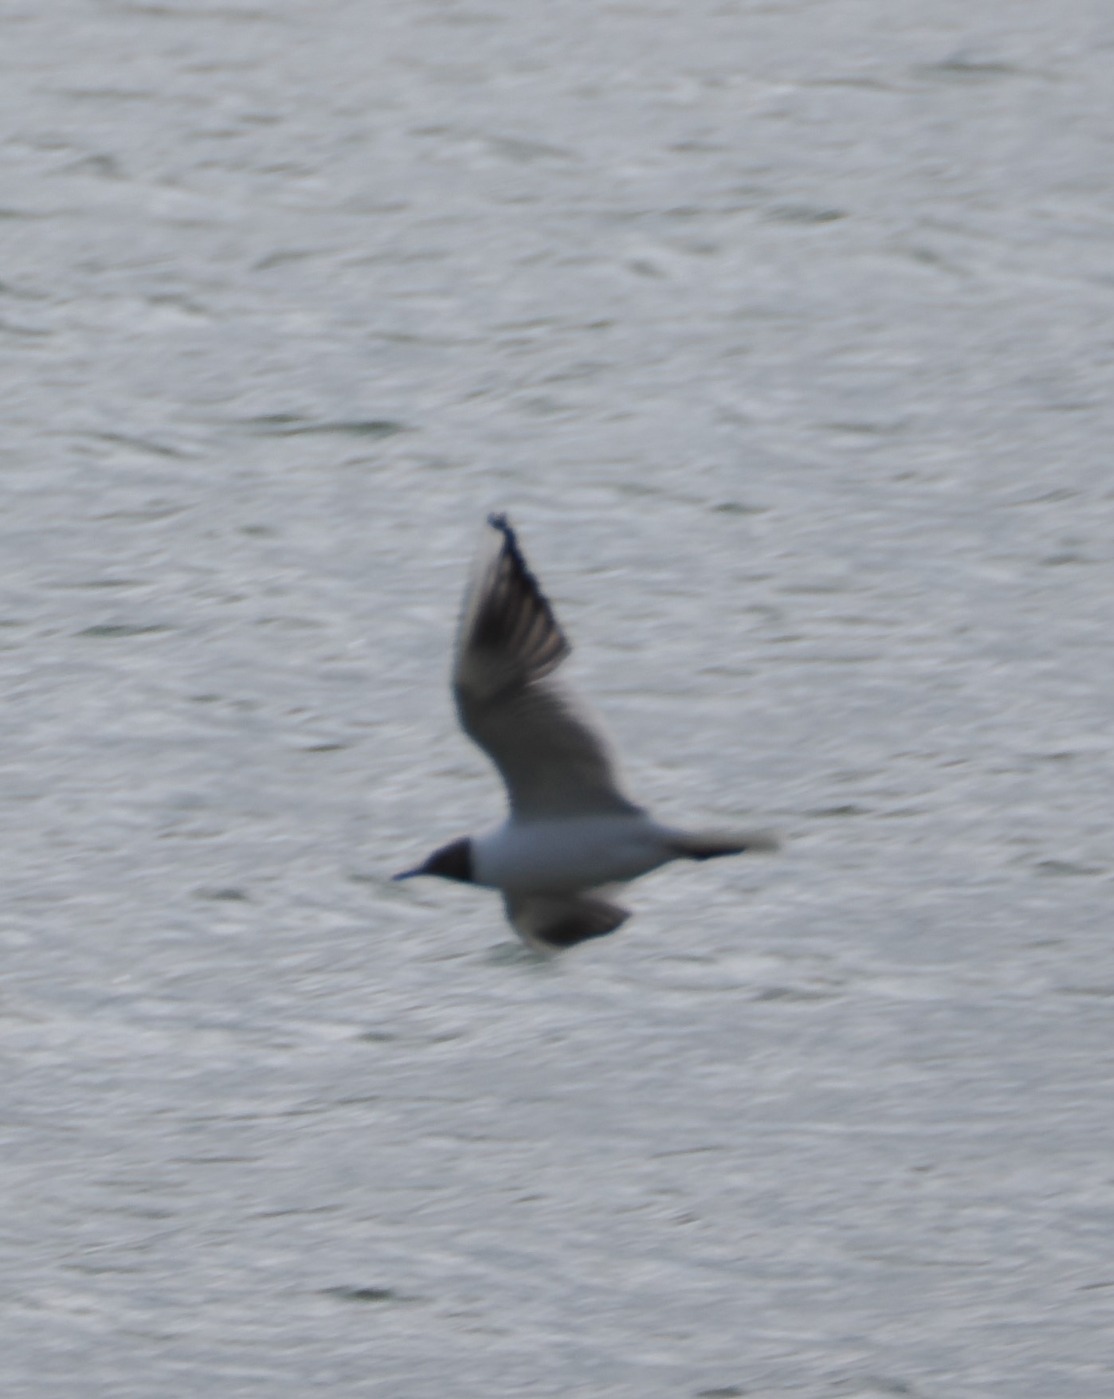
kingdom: Animalia
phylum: Chordata
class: Aves
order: Charadriiformes
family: Laridae
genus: Chroicocephalus
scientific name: Chroicocephalus ridibundus
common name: Hættemåge
